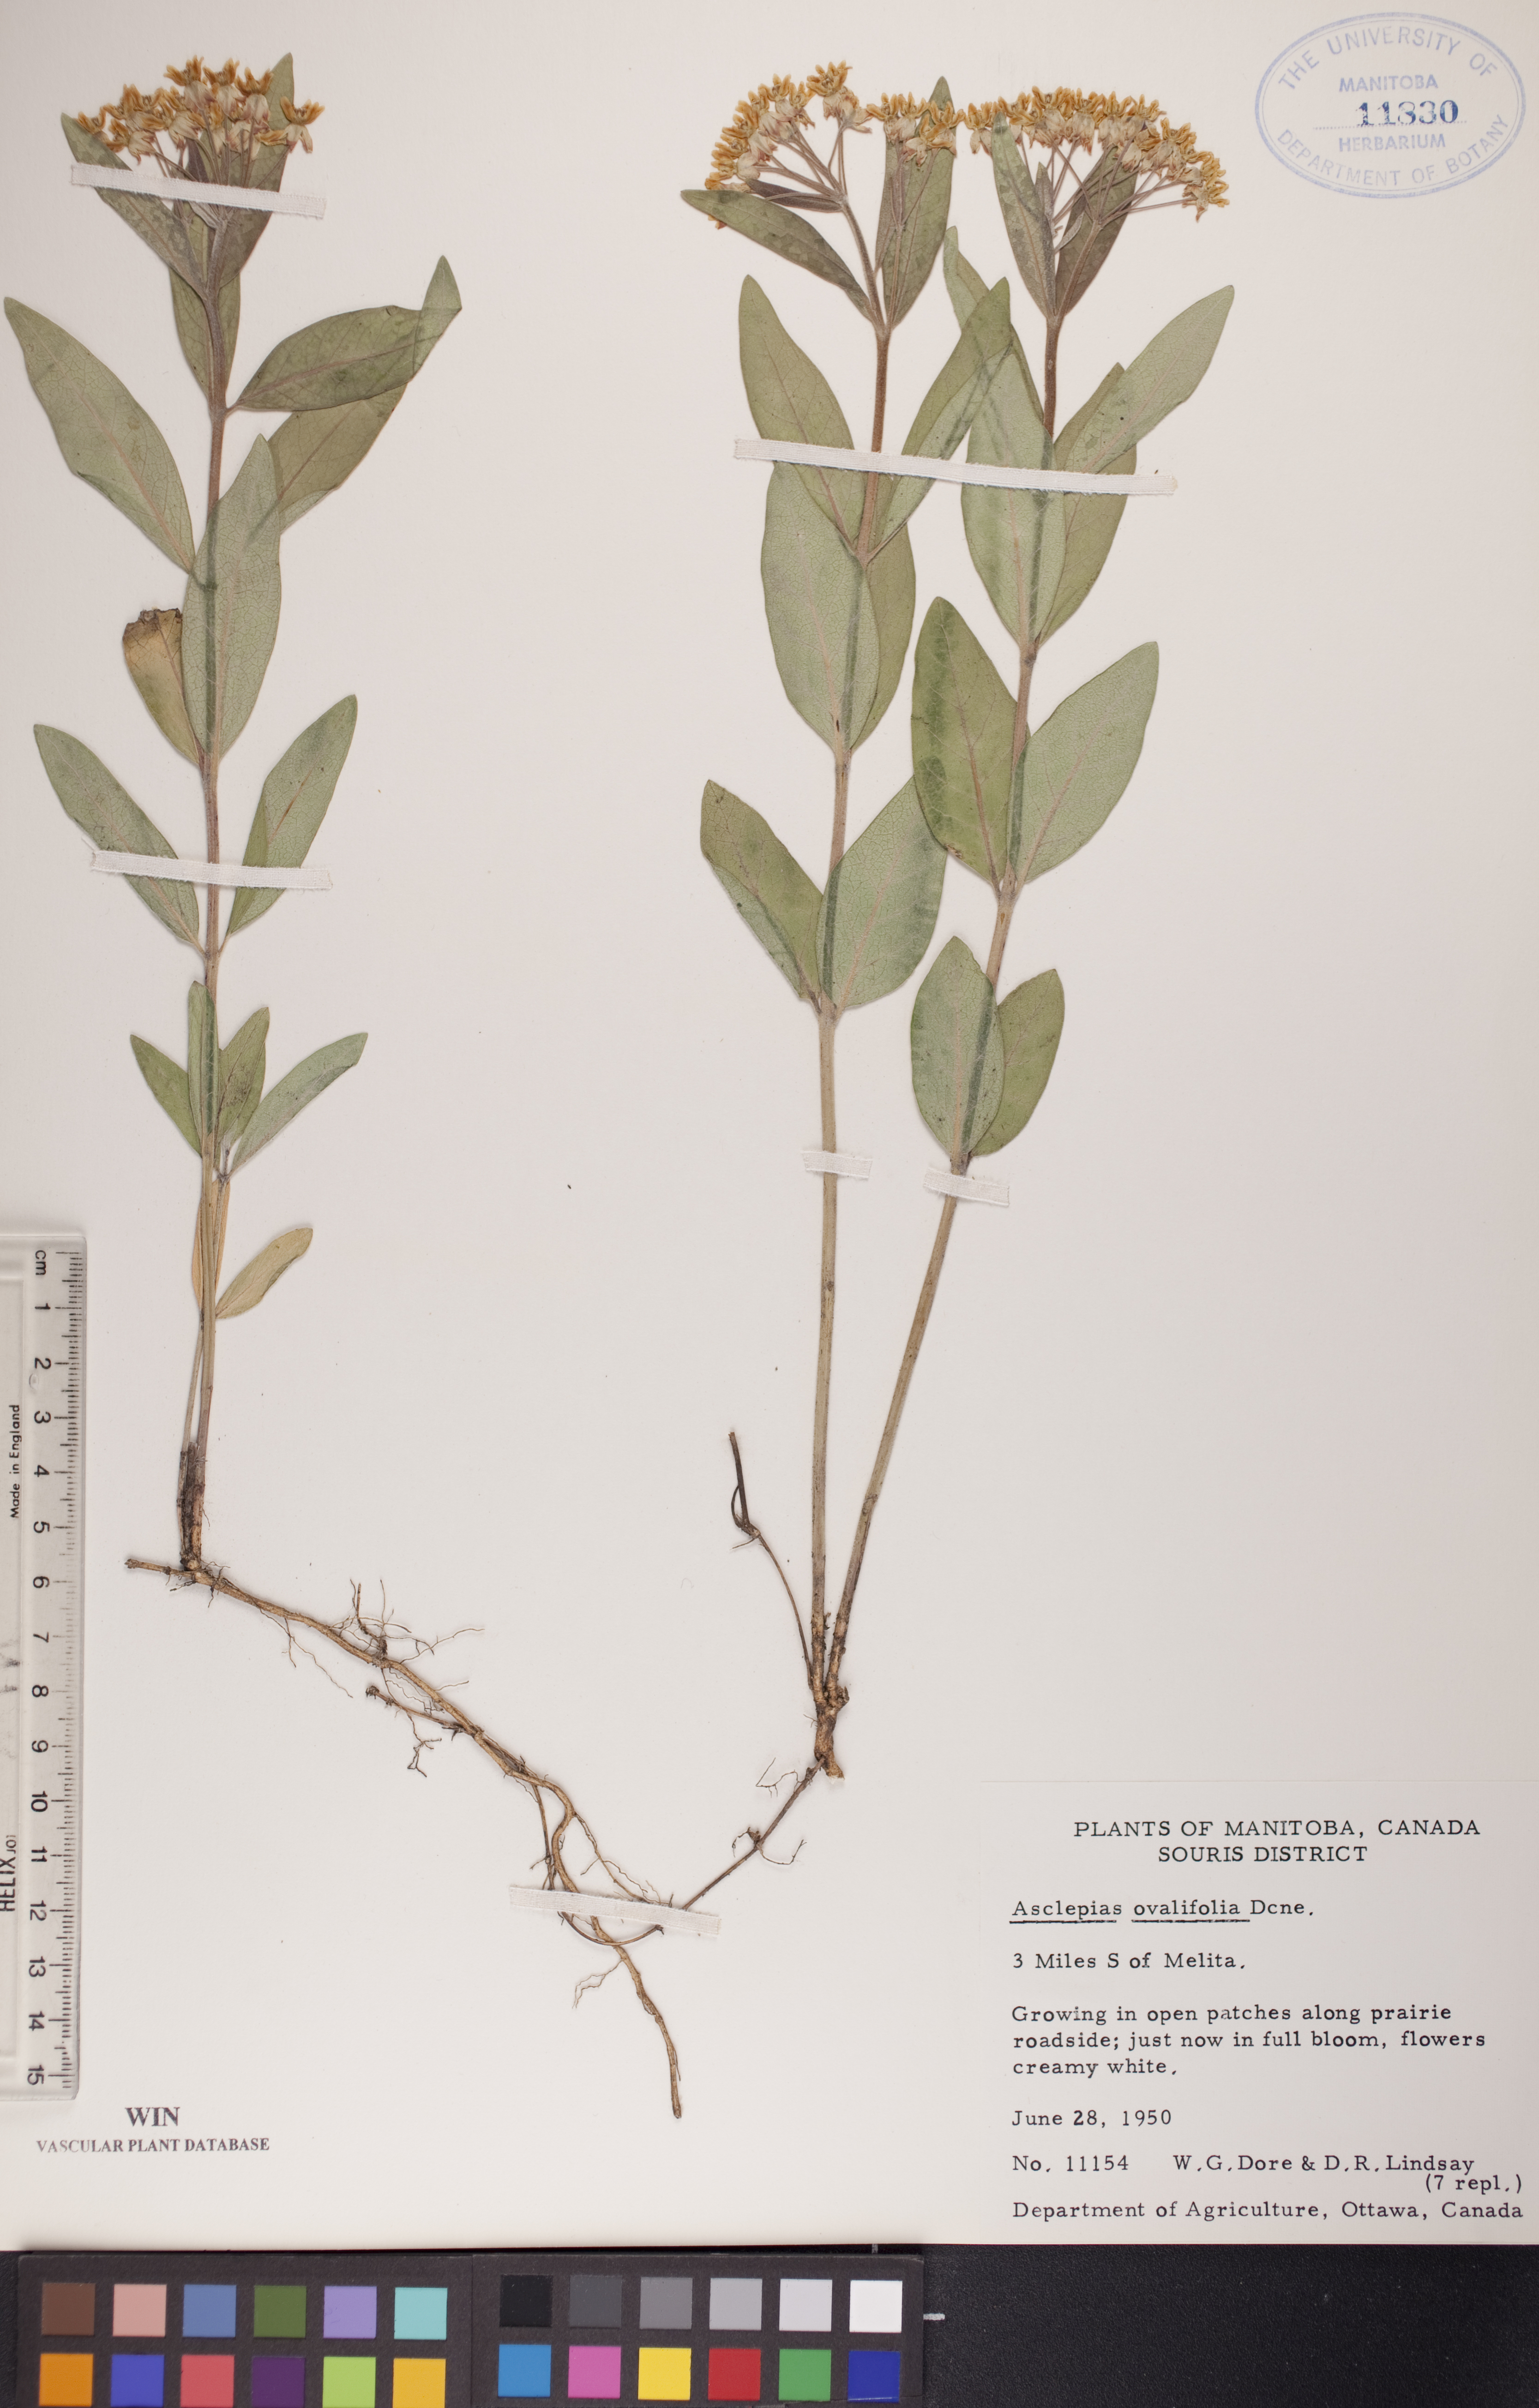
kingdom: Plantae
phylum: Tracheophyta
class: Magnoliopsida
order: Gentianales
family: Apocynaceae
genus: Asclepias
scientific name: Asclepias ovalifolia
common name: Dwarf milkweed
